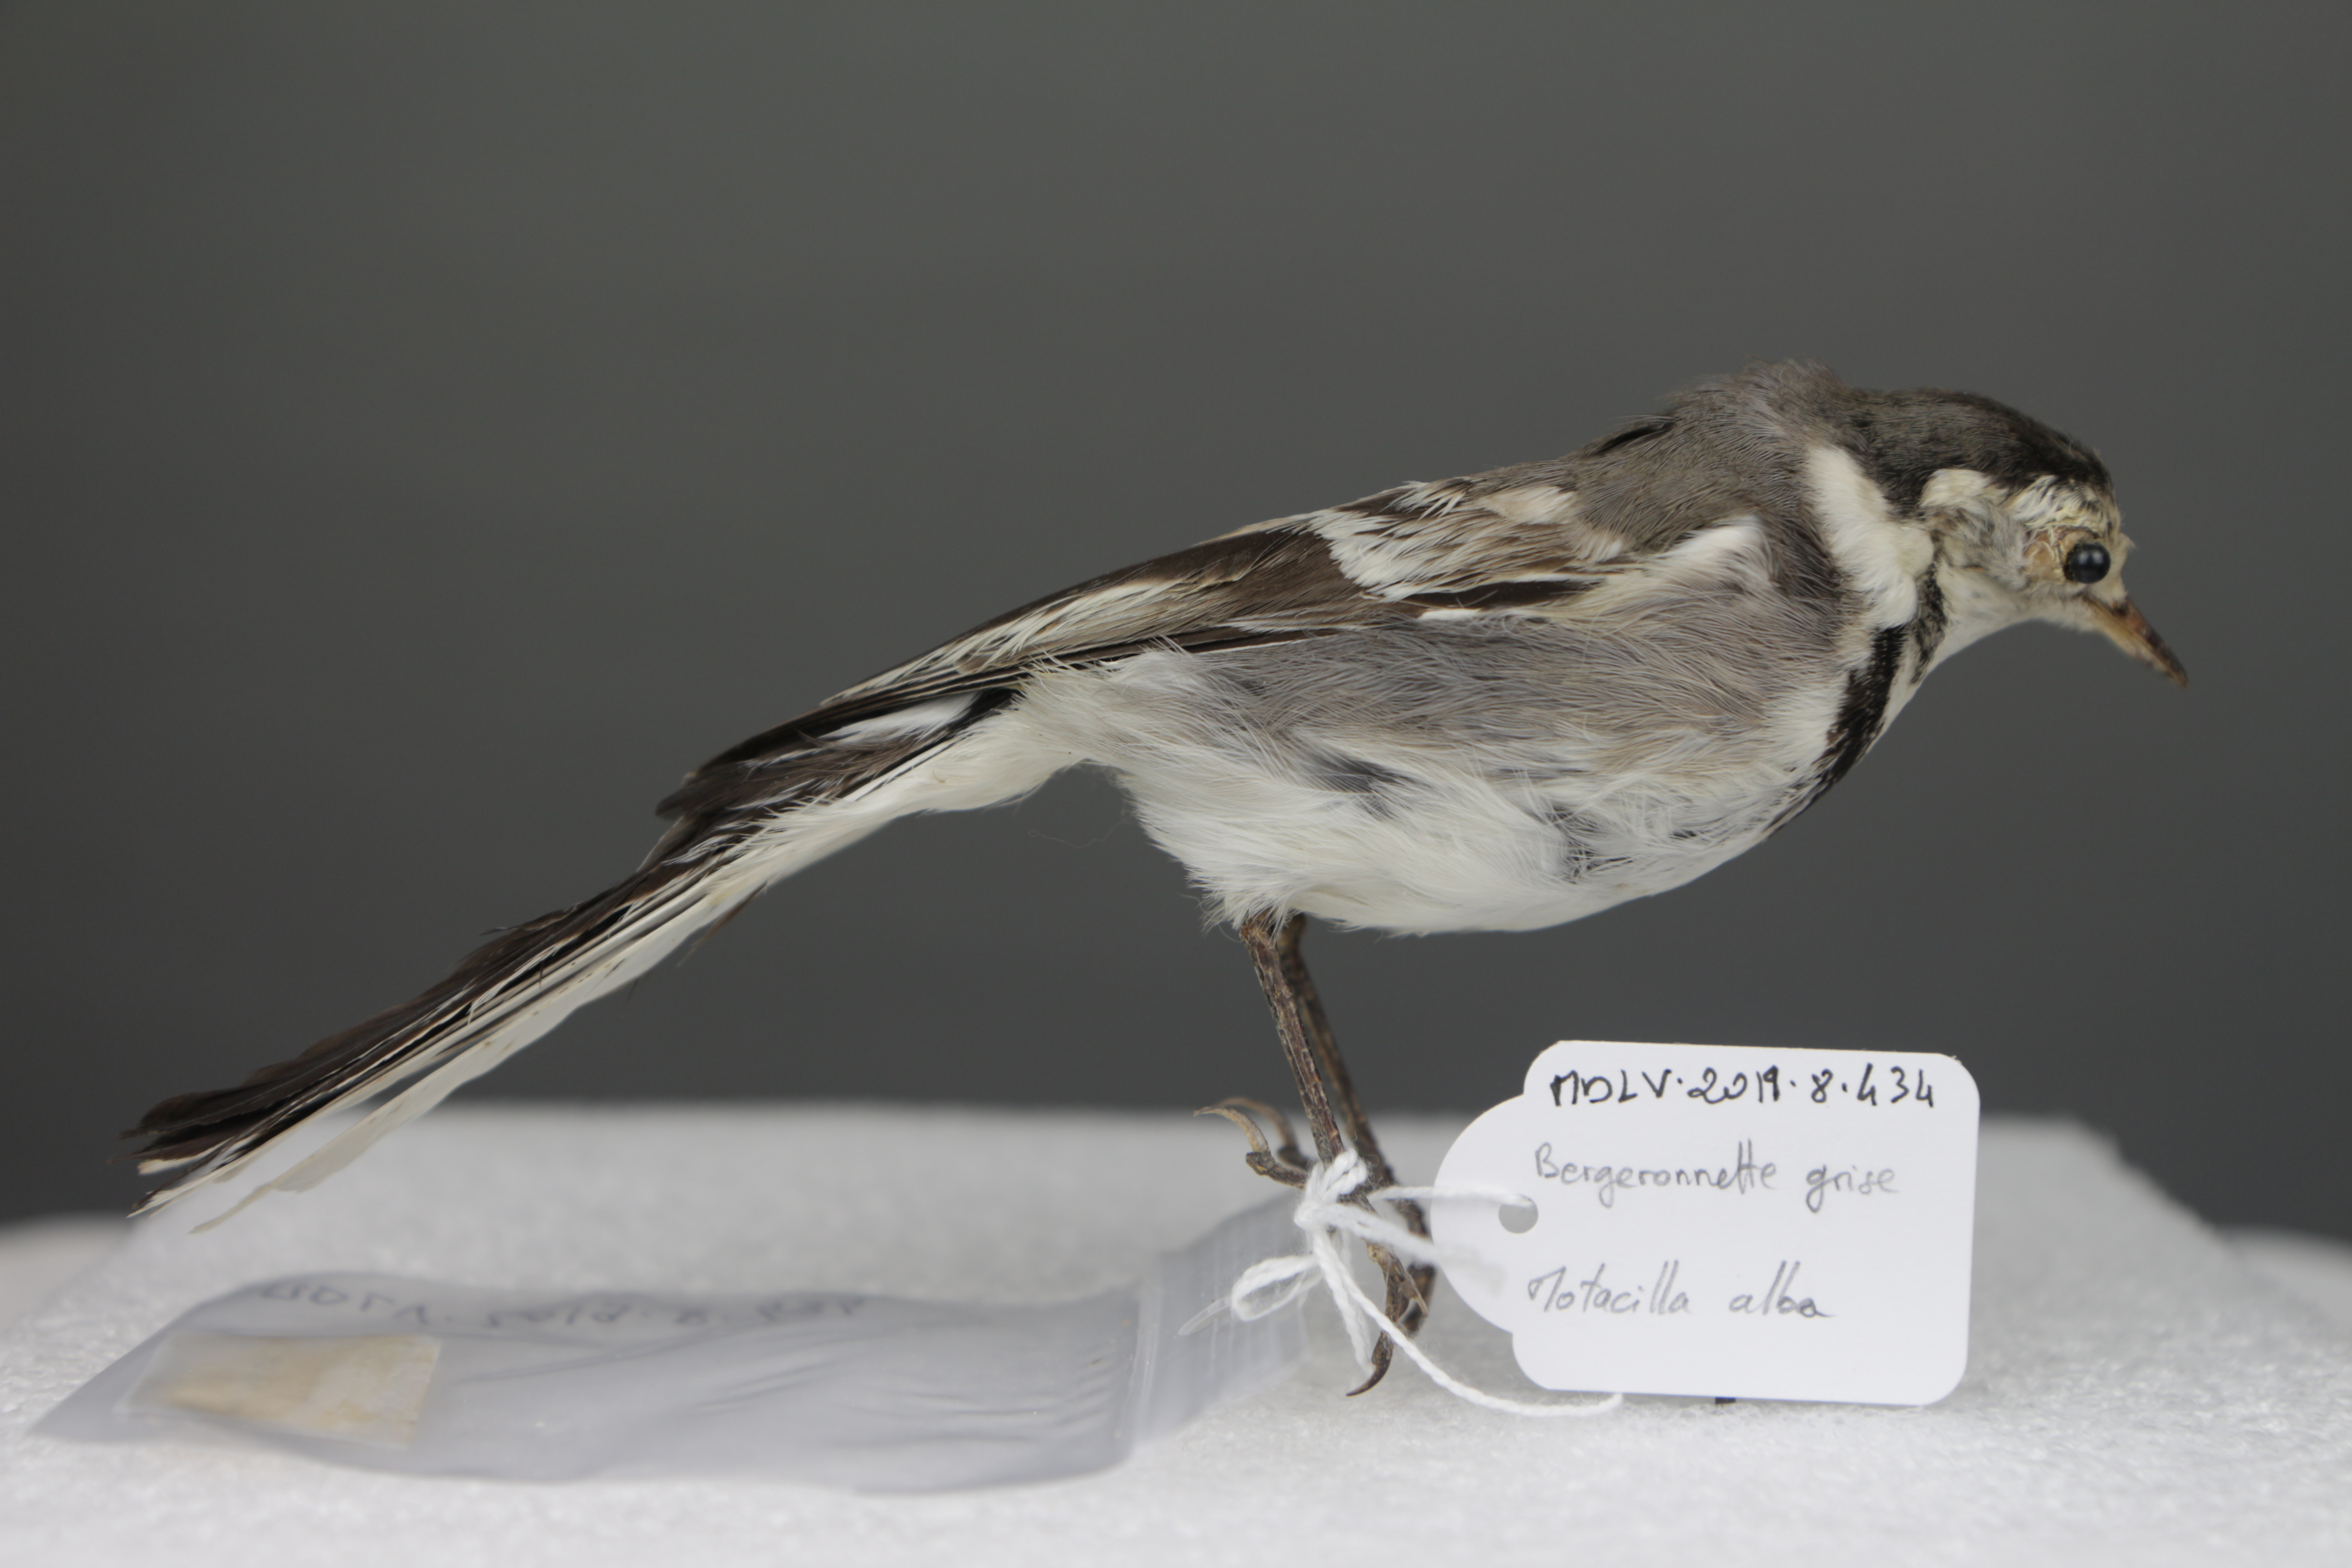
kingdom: Animalia
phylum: Chordata
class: Aves
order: Passeriformes
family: Motacillidae
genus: Motacilla
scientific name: Motacilla alba
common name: White wagtail
